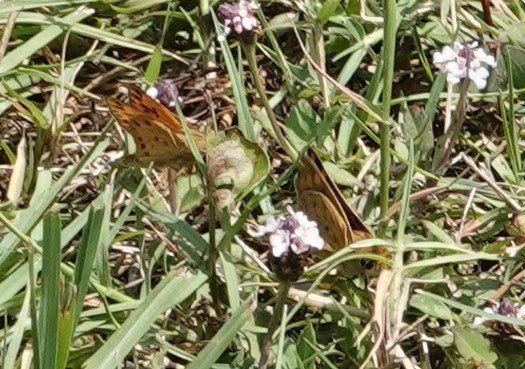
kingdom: Animalia
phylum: Arthropoda
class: Insecta
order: Lepidoptera
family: Hesperiidae
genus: Hylephila
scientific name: Hylephila phyleus
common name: Fiery Skipper
